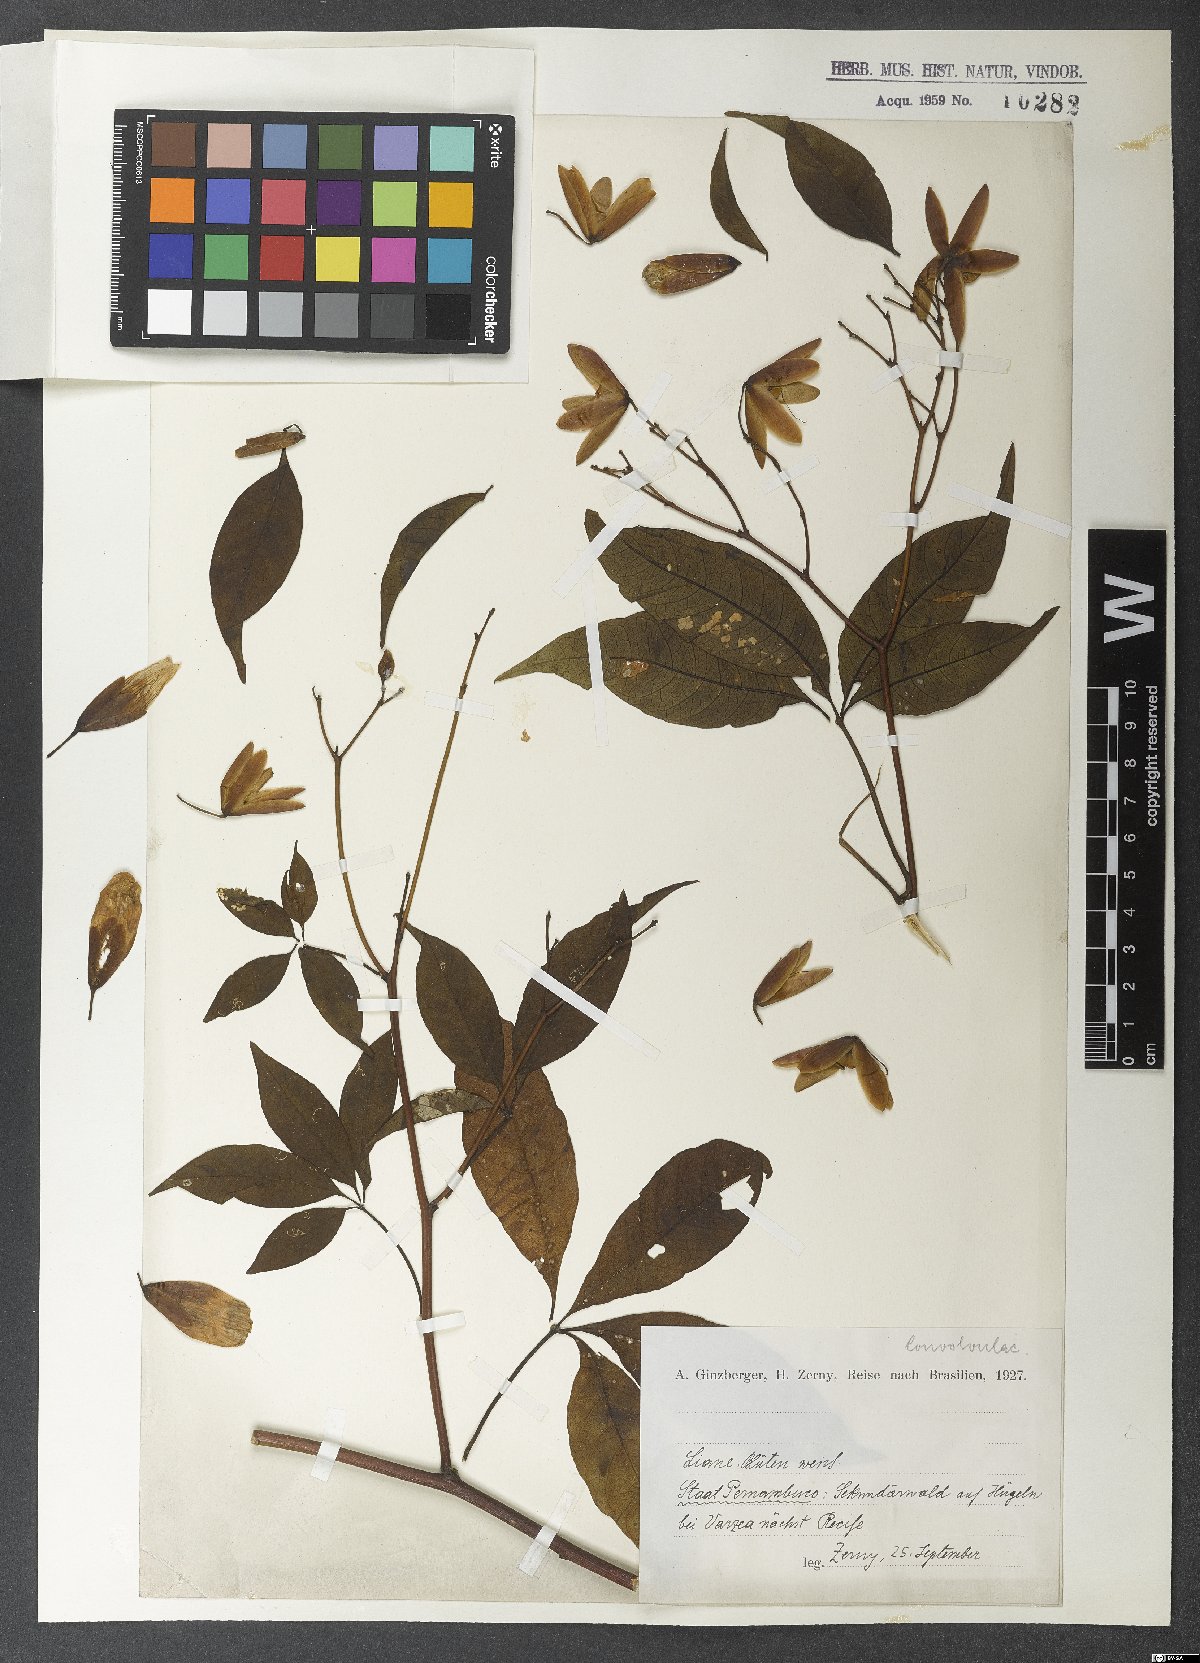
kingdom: Plantae
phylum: Tracheophyta
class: Magnoliopsida
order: Solanales
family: Convolvulaceae
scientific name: Convolvulaceae
